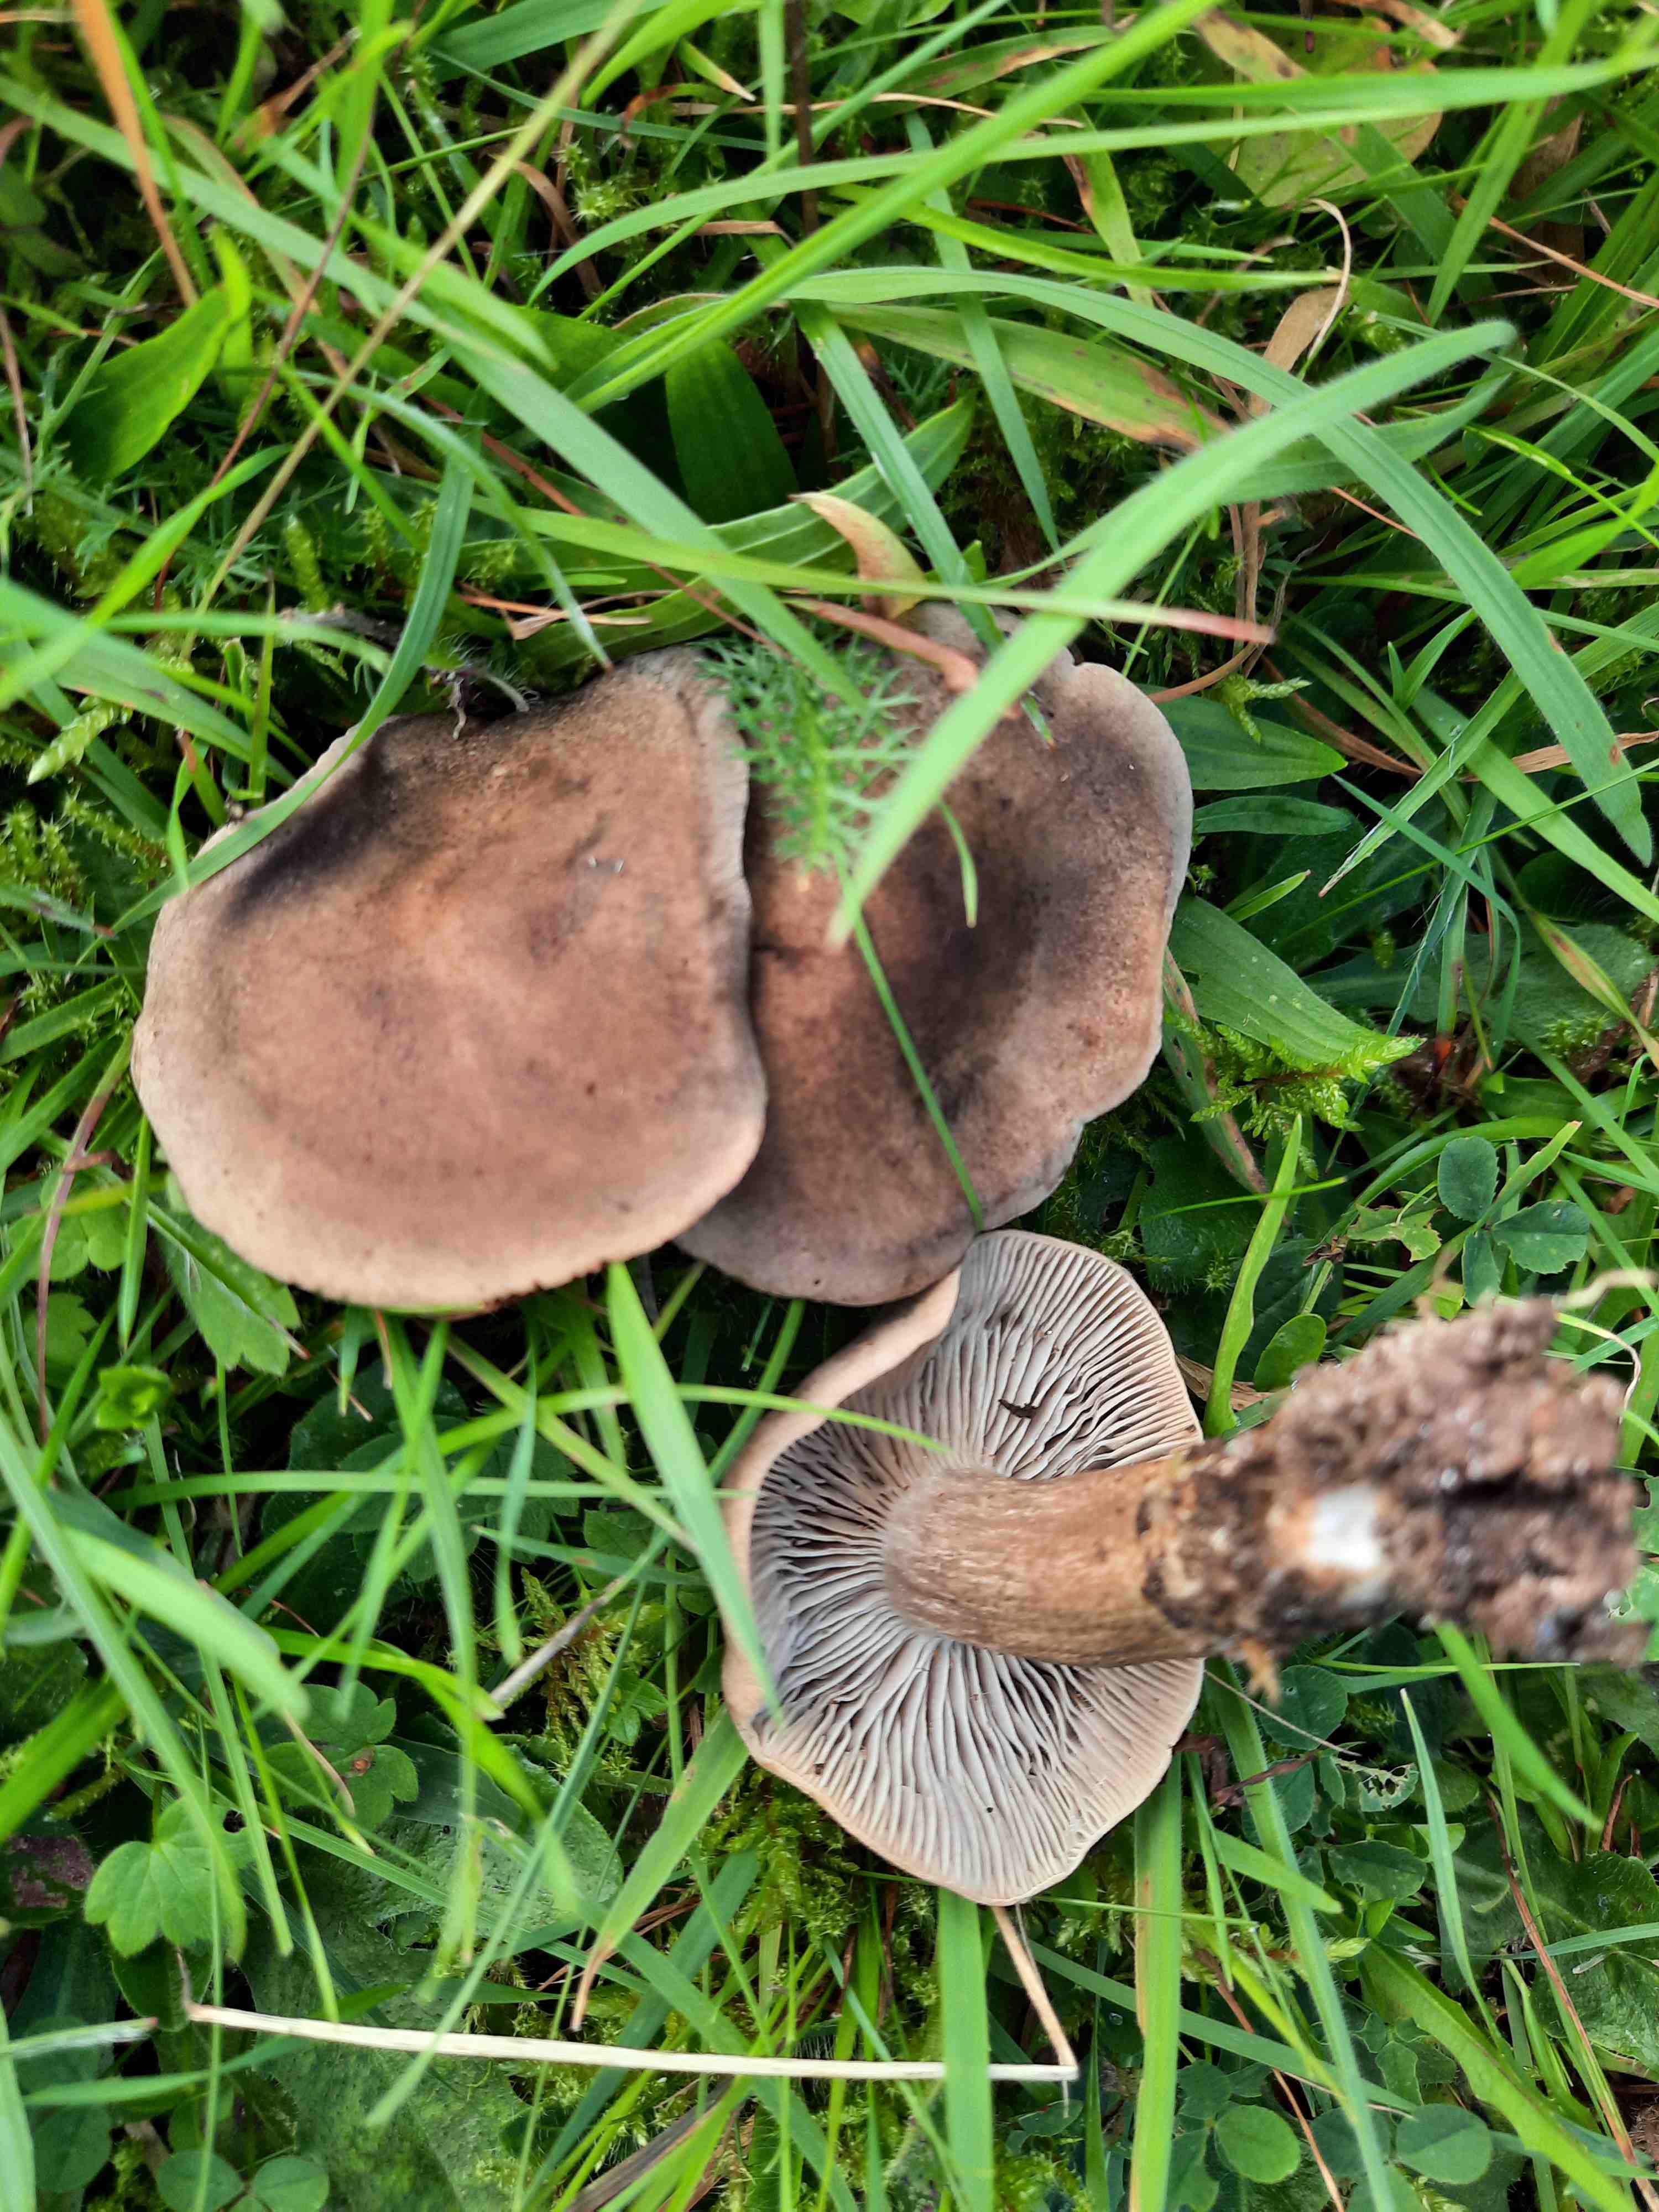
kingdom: Fungi
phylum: Basidiomycota
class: Agaricomycetes
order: Agaricales
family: Tricholomataceae
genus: Pseudotricholoma
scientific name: Pseudotricholoma metapodium
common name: rødmende alfehat
